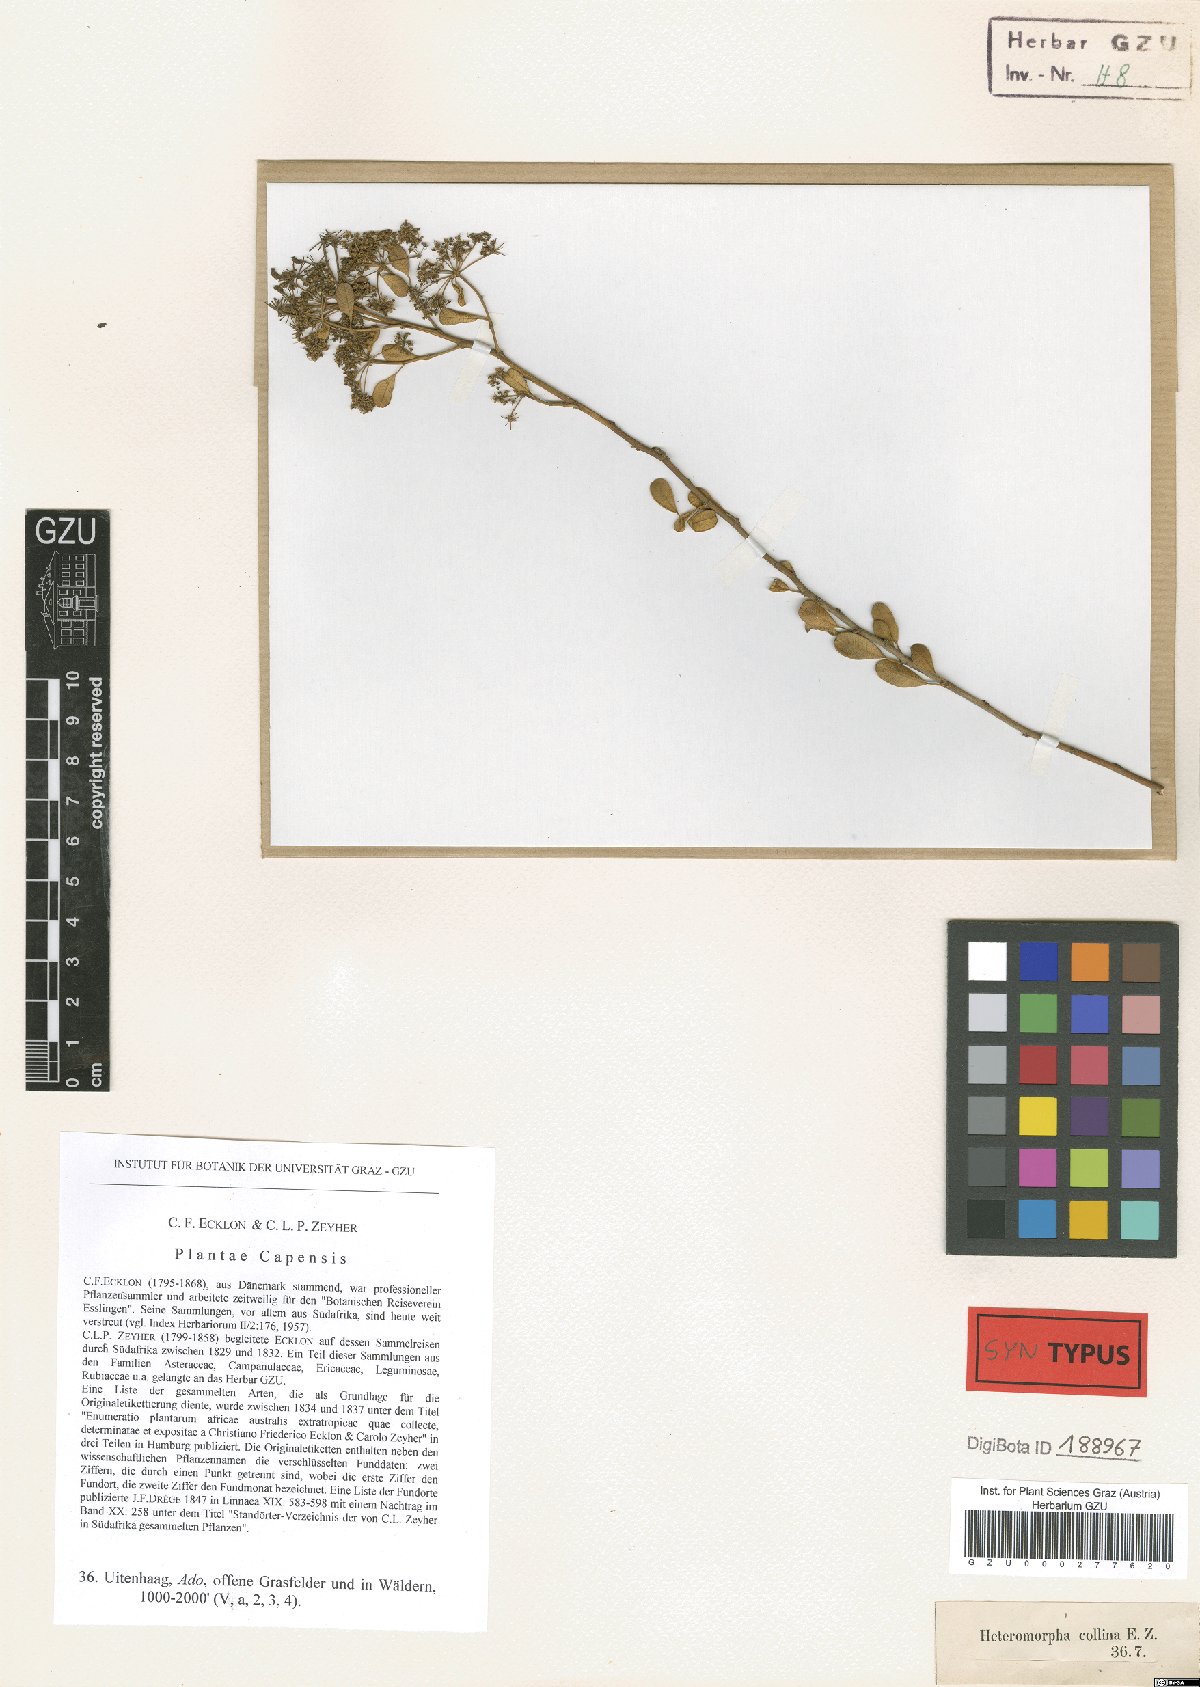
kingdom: Plantae
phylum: Tracheophyta
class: Magnoliopsida
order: Apiales
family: Apiaceae
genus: Heteromorpha
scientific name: Heteromorpha arborescens
